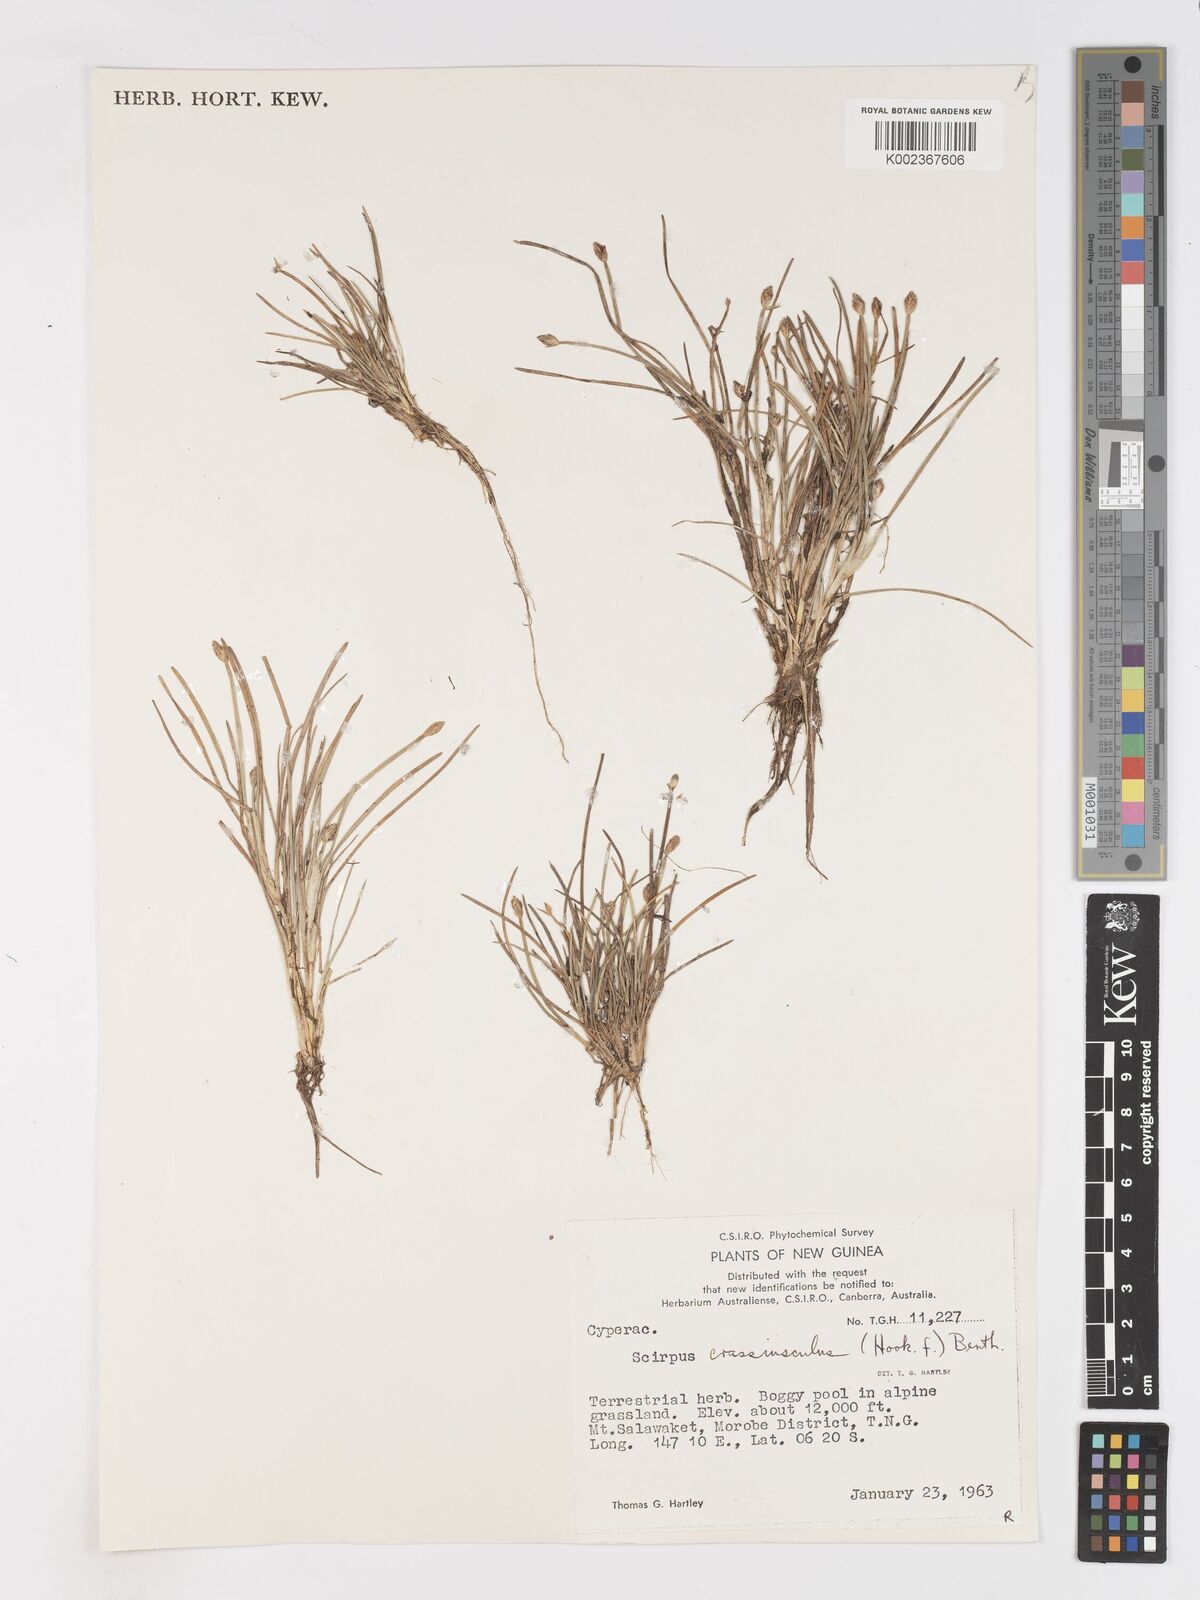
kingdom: Plantae
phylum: Tracheophyta
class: Liliopsida
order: Poales
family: Cyperaceae
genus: Isolepis
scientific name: Isolepis crassiuscula
